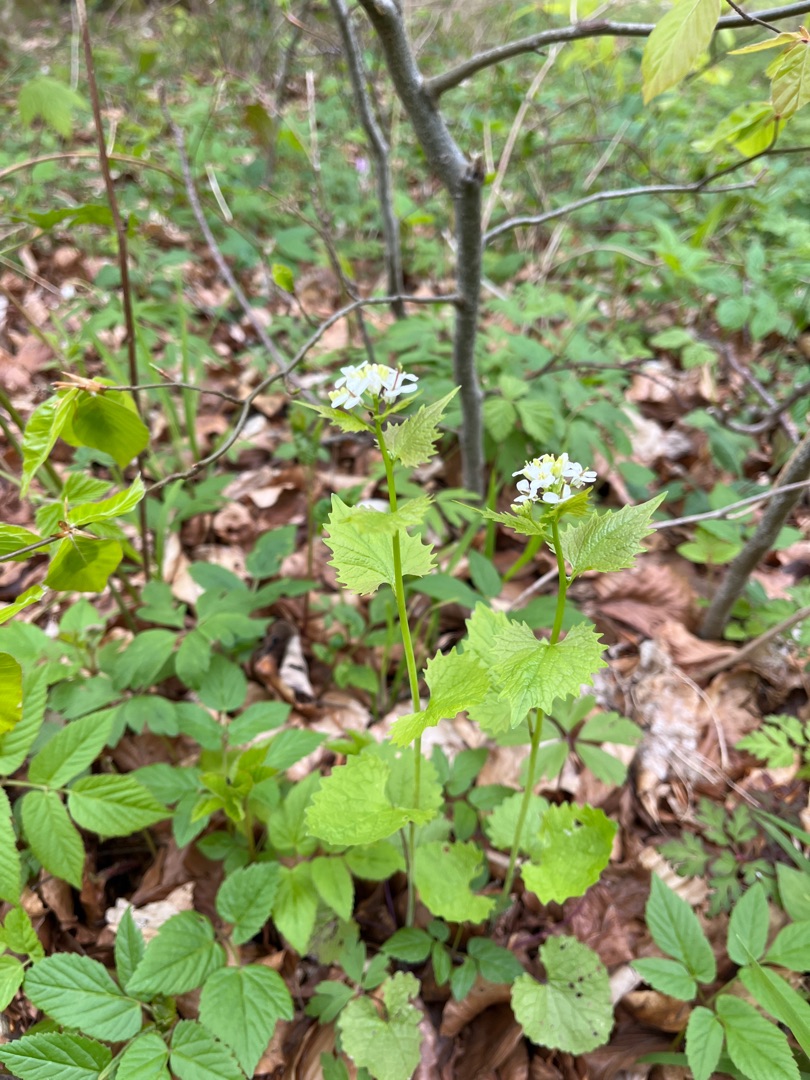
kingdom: Plantae
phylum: Tracheophyta
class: Magnoliopsida
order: Brassicales
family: Brassicaceae
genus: Alliaria
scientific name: Alliaria petiolata
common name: Løgkarse
